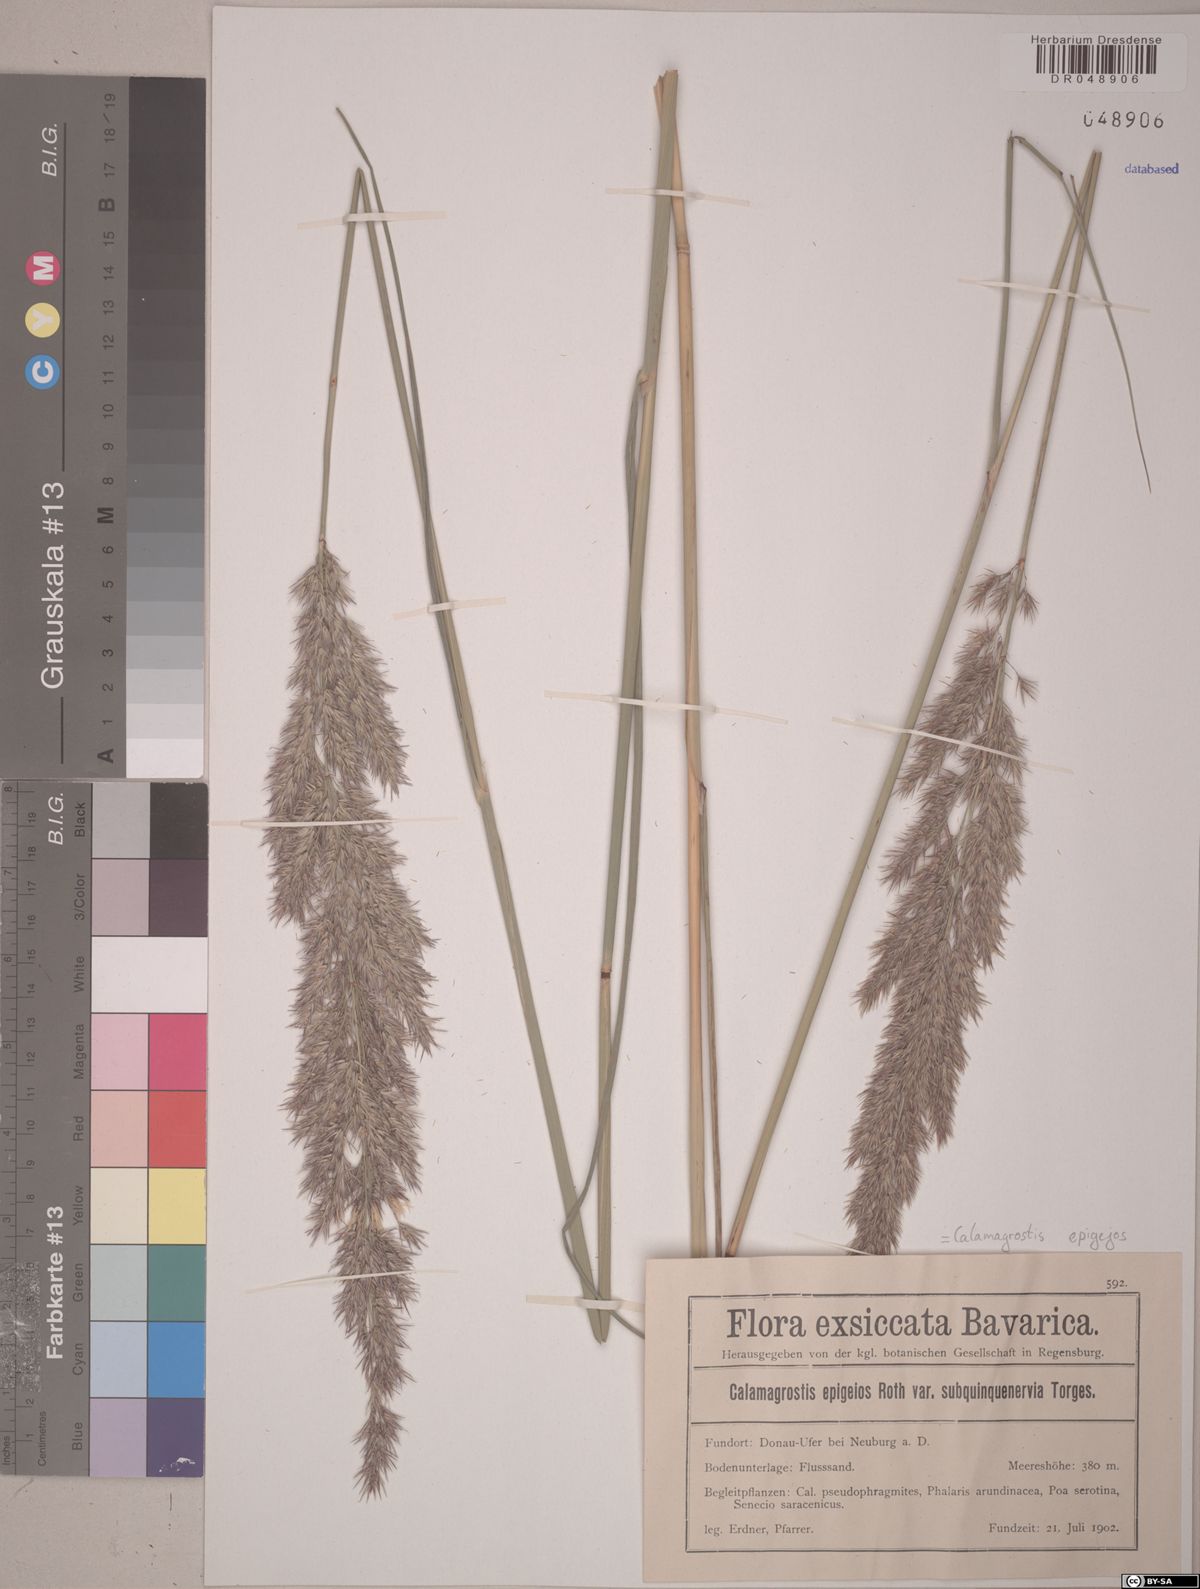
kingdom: Plantae
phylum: Tracheophyta
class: Liliopsida
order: Poales
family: Poaceae
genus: Calamagrostis
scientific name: Calamagrostis epigejos
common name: Wood small-reed
